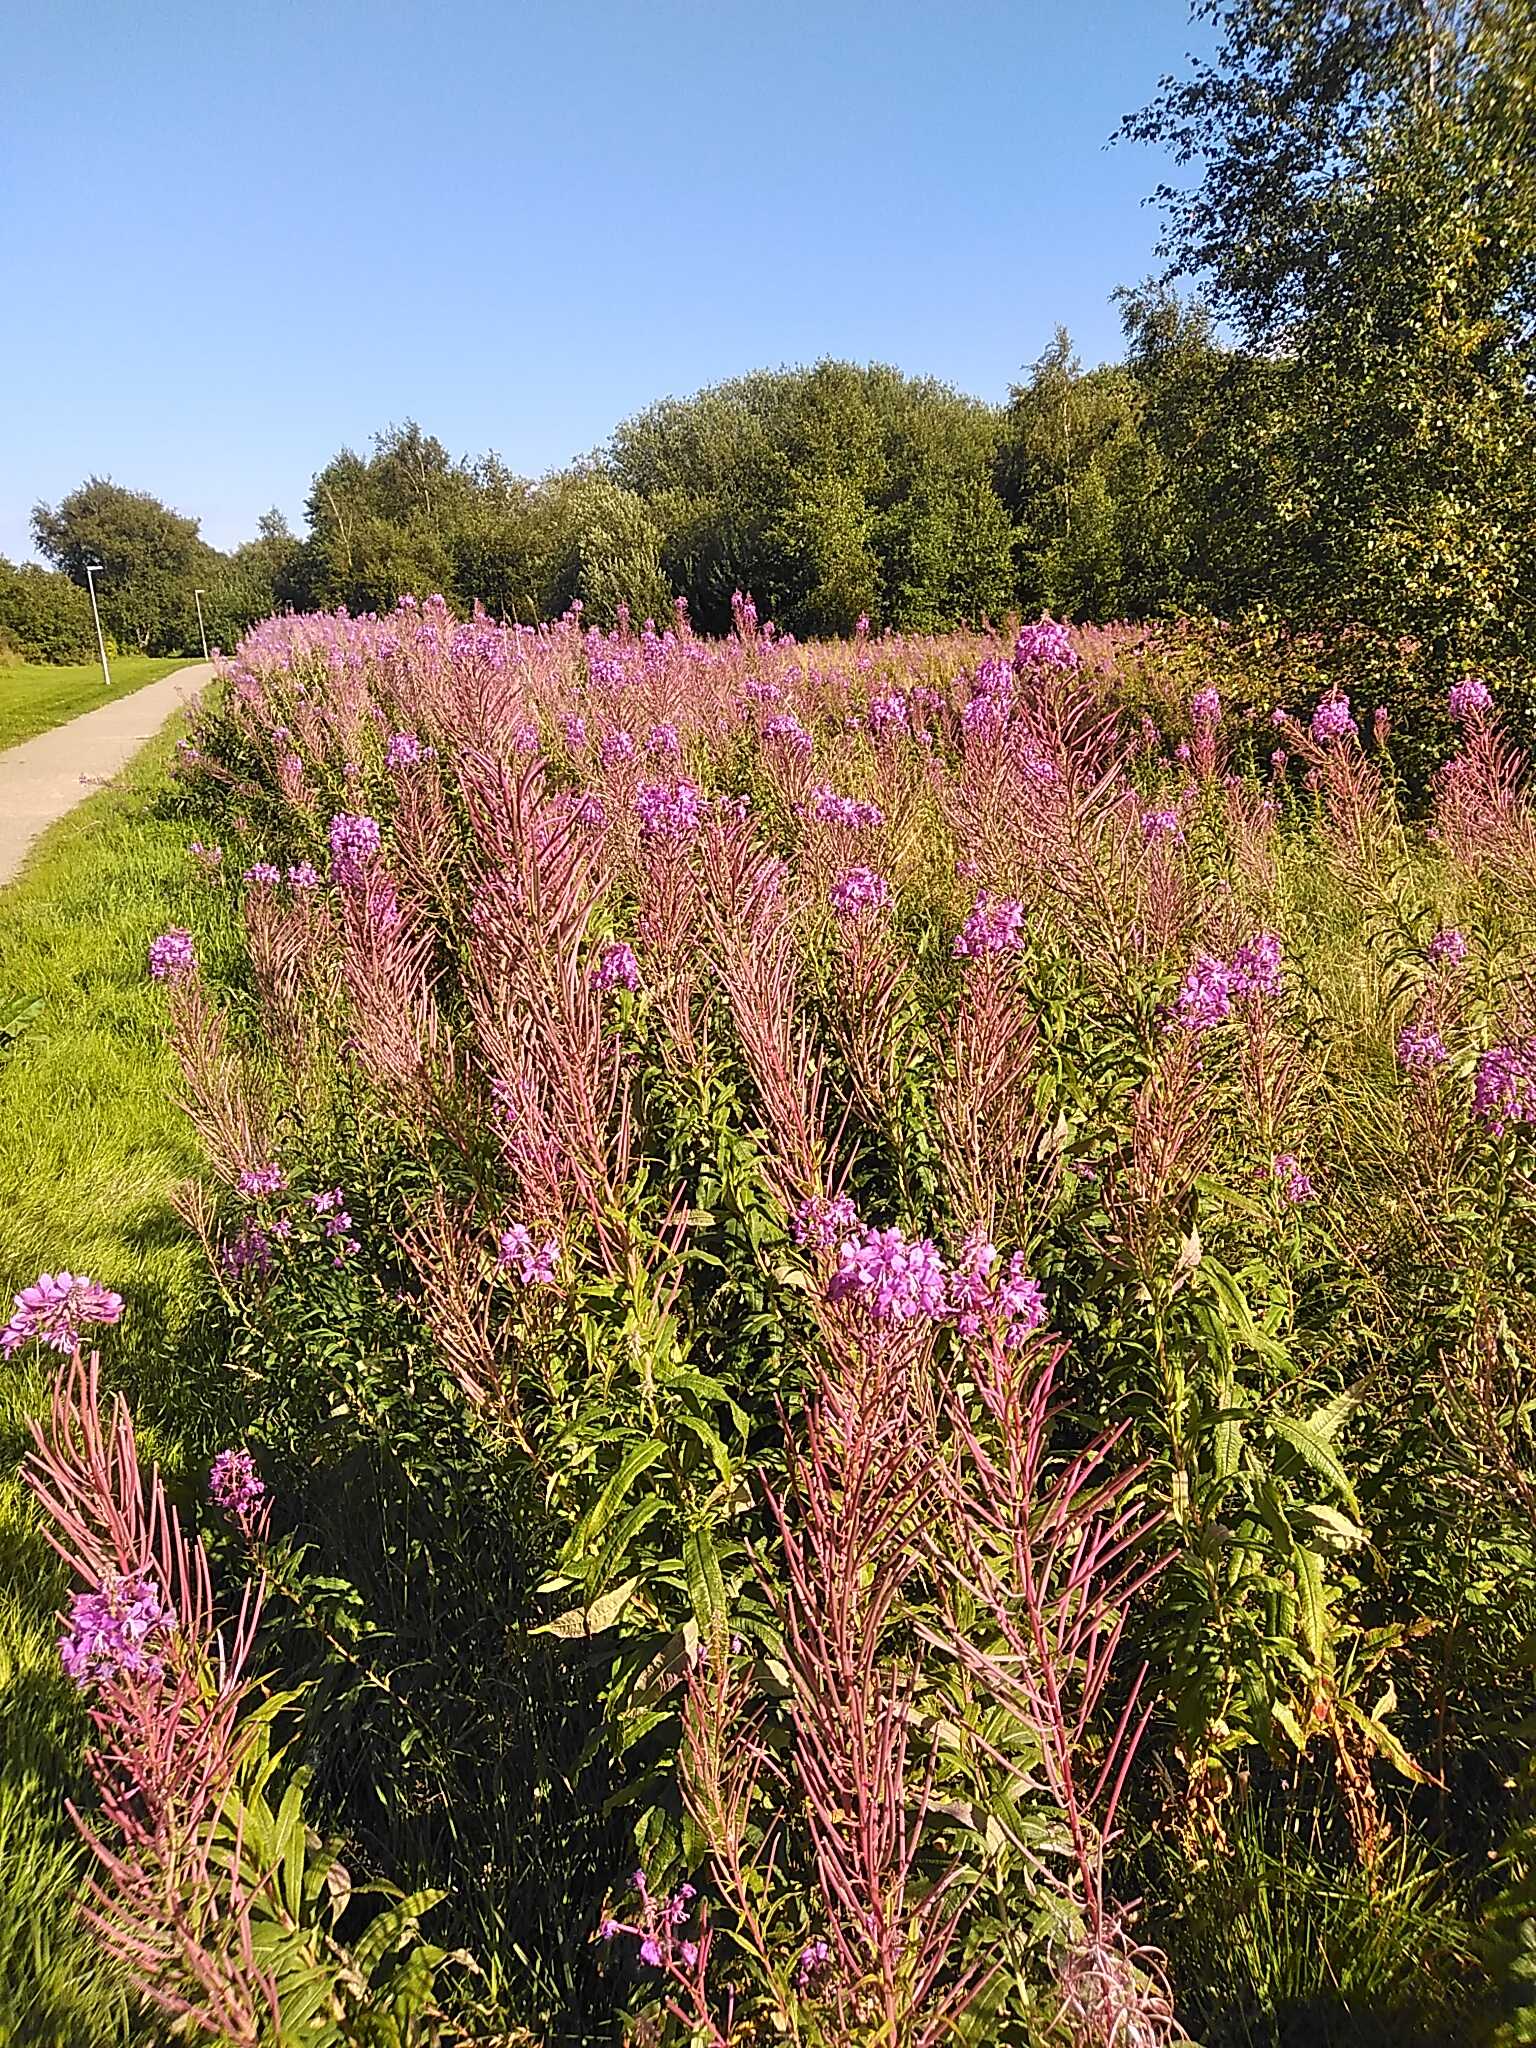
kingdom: Plantae
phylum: Tracheophyta
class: Magnoliopsida
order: Myrtales
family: Onagraceae
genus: Chamaenerion
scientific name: Chamaenerion angustifolium
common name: Gederams
